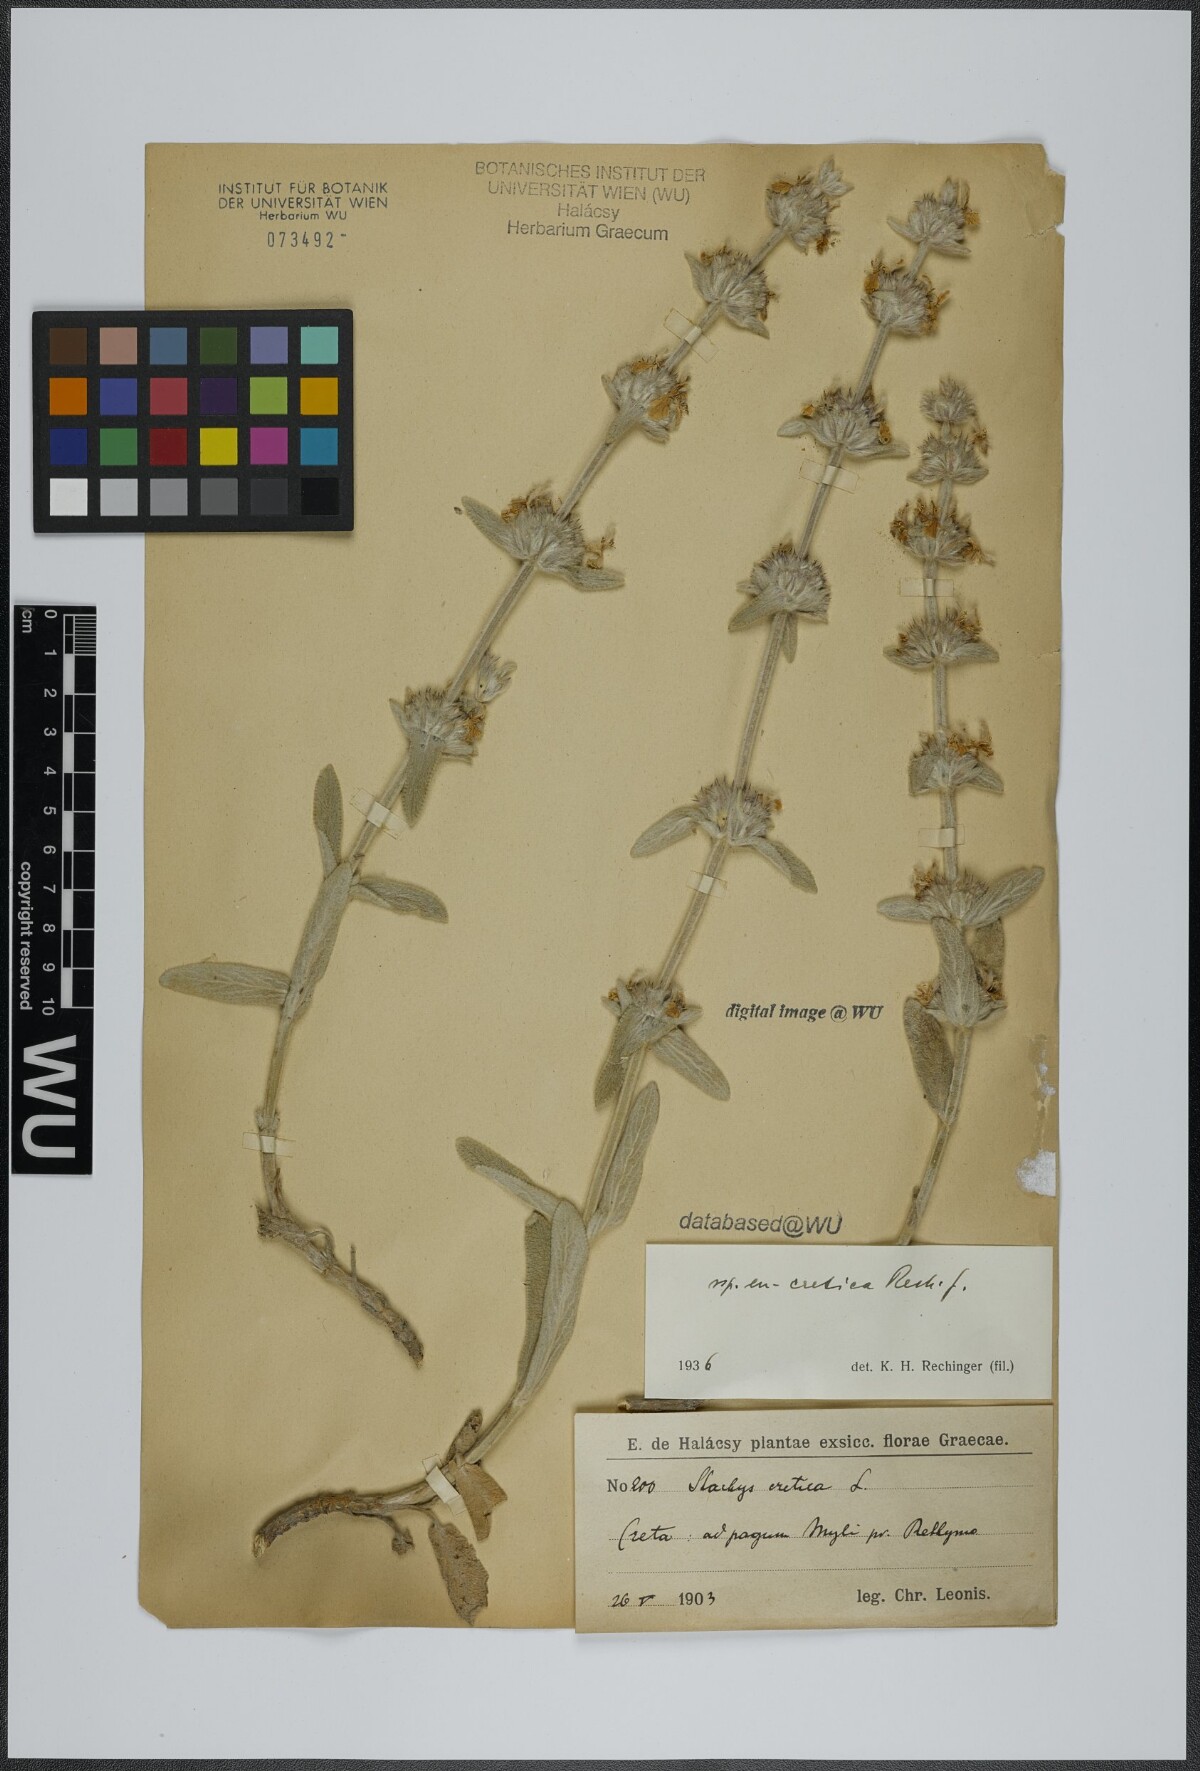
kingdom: Plantae
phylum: Tracheophyta
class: Magnoliopsida
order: Lamiales
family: Lamiaceae
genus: Stachys
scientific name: Stachys cretica
